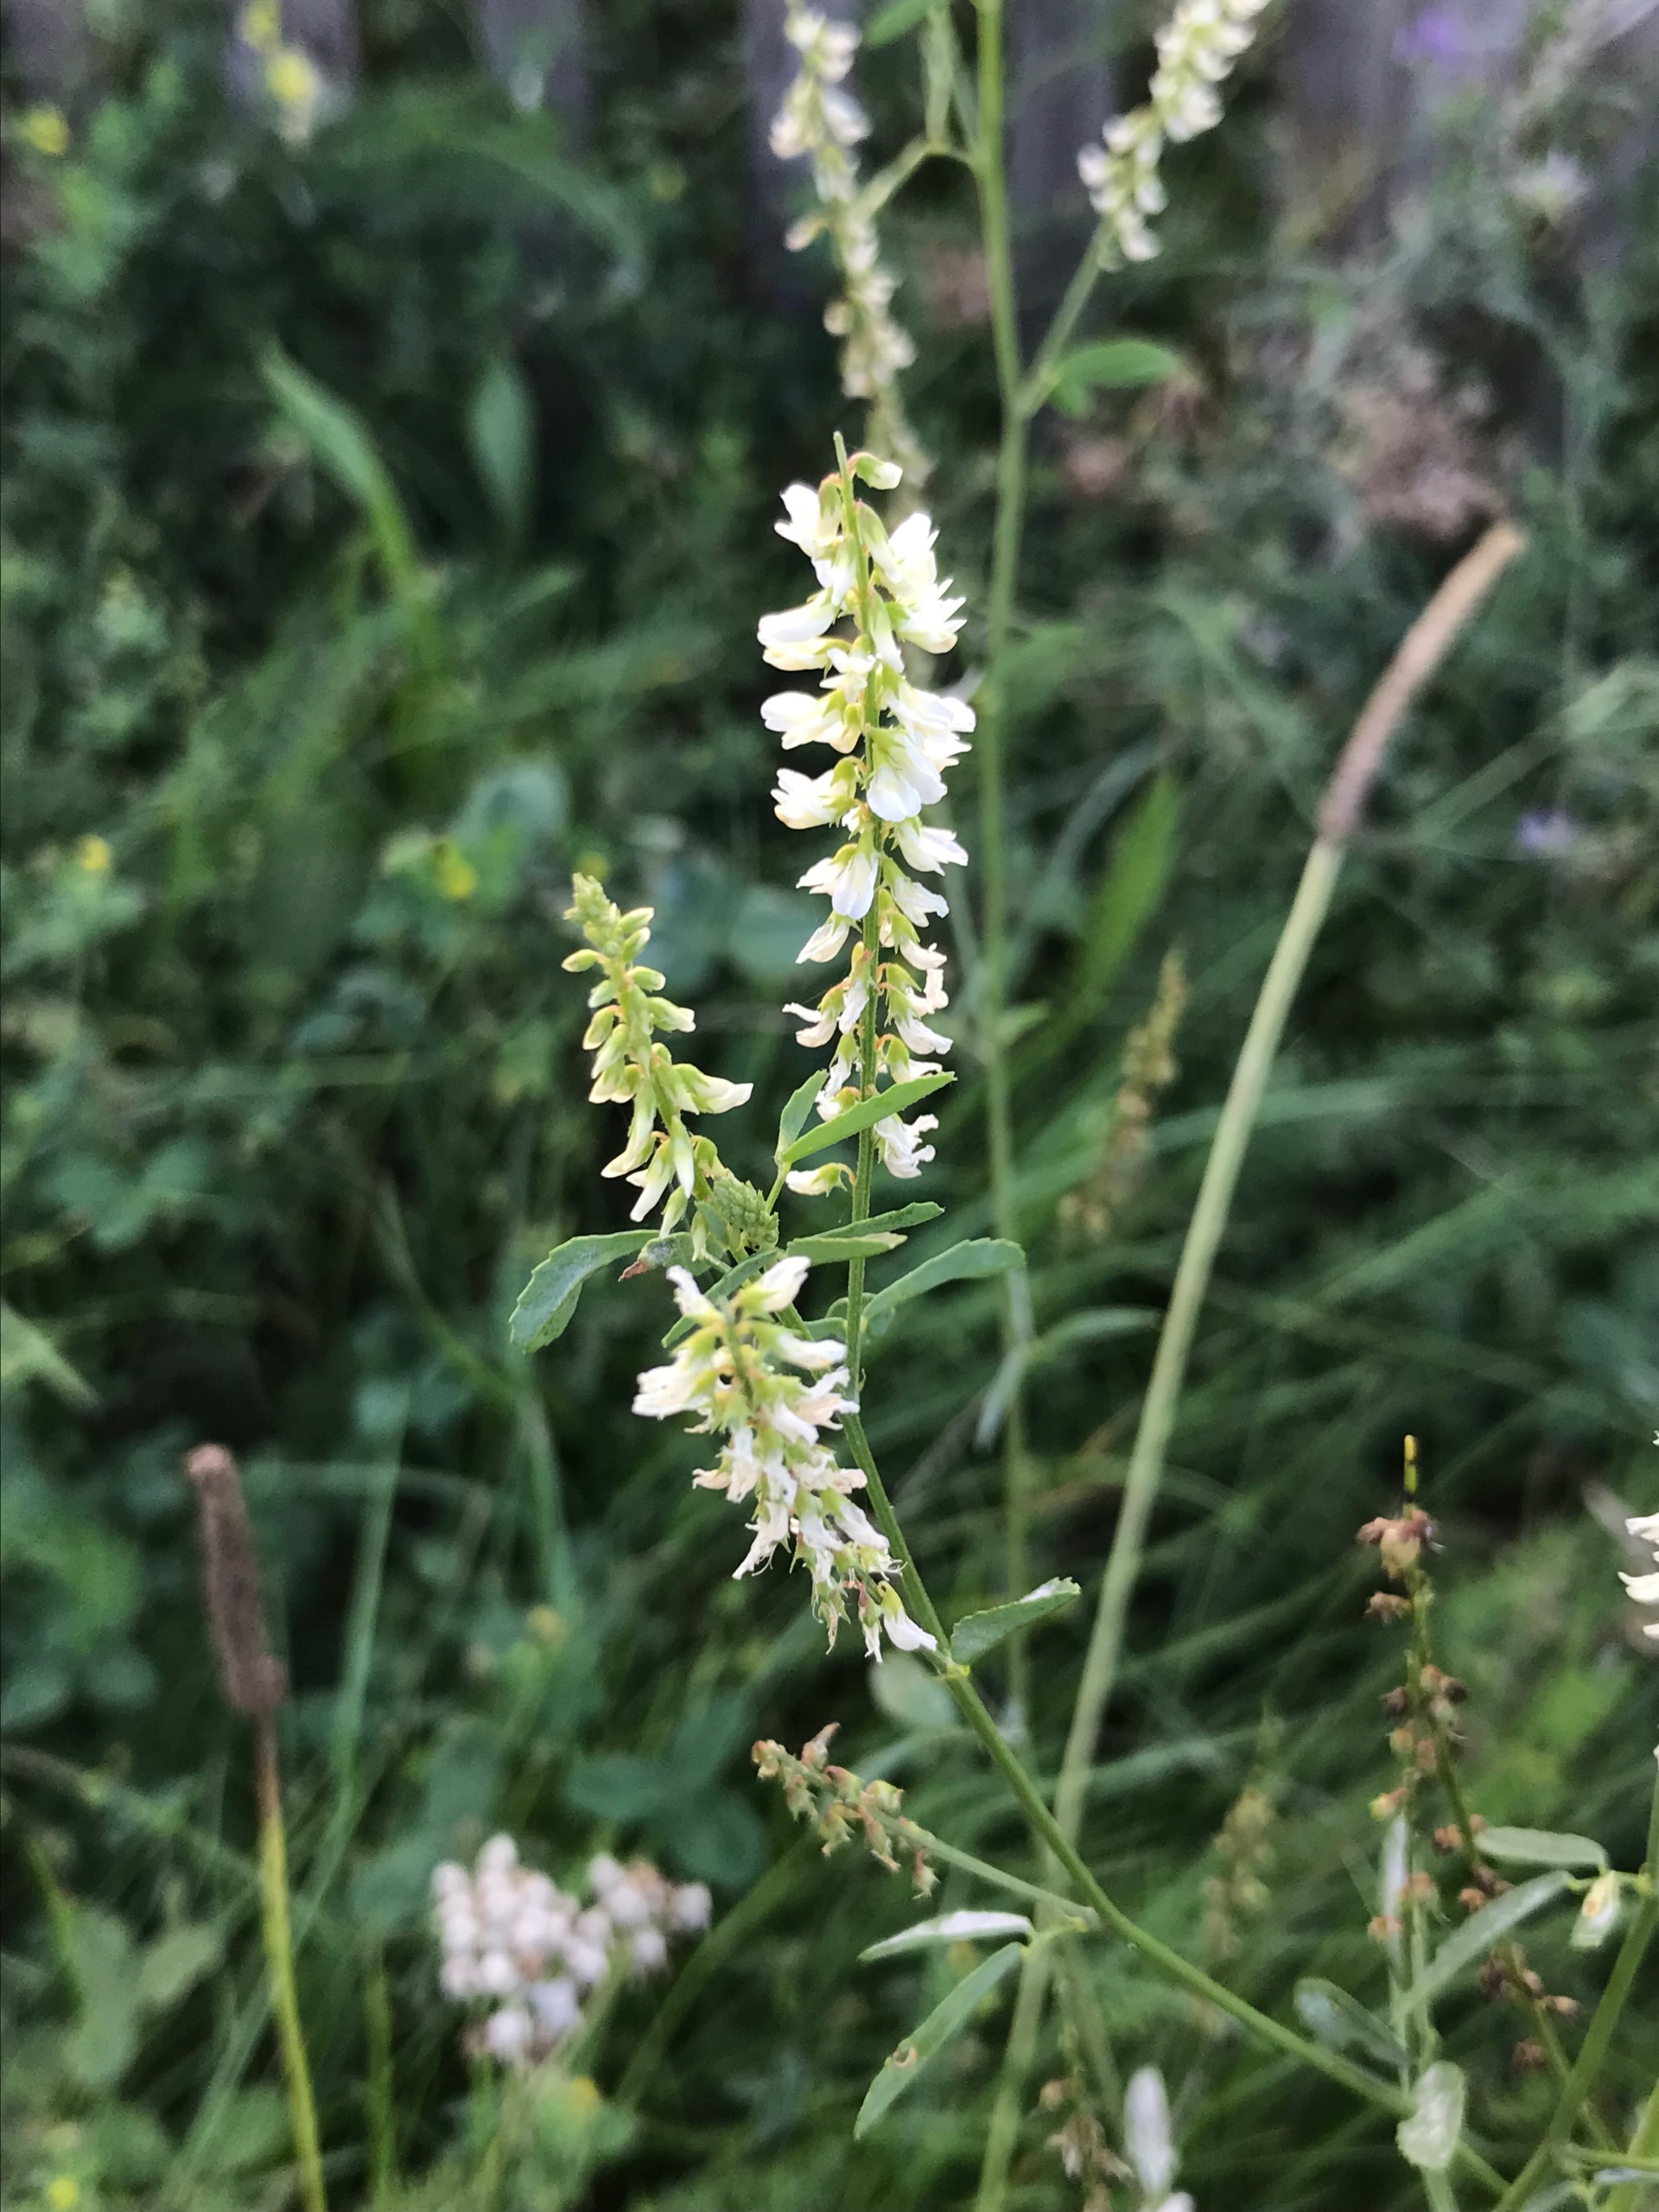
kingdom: Plantae
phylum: Tracheophyta
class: Magnoliopsida
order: Fabales
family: Fabaceae
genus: Melilotus
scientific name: Melilotus albus
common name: Hvid stenkløver
